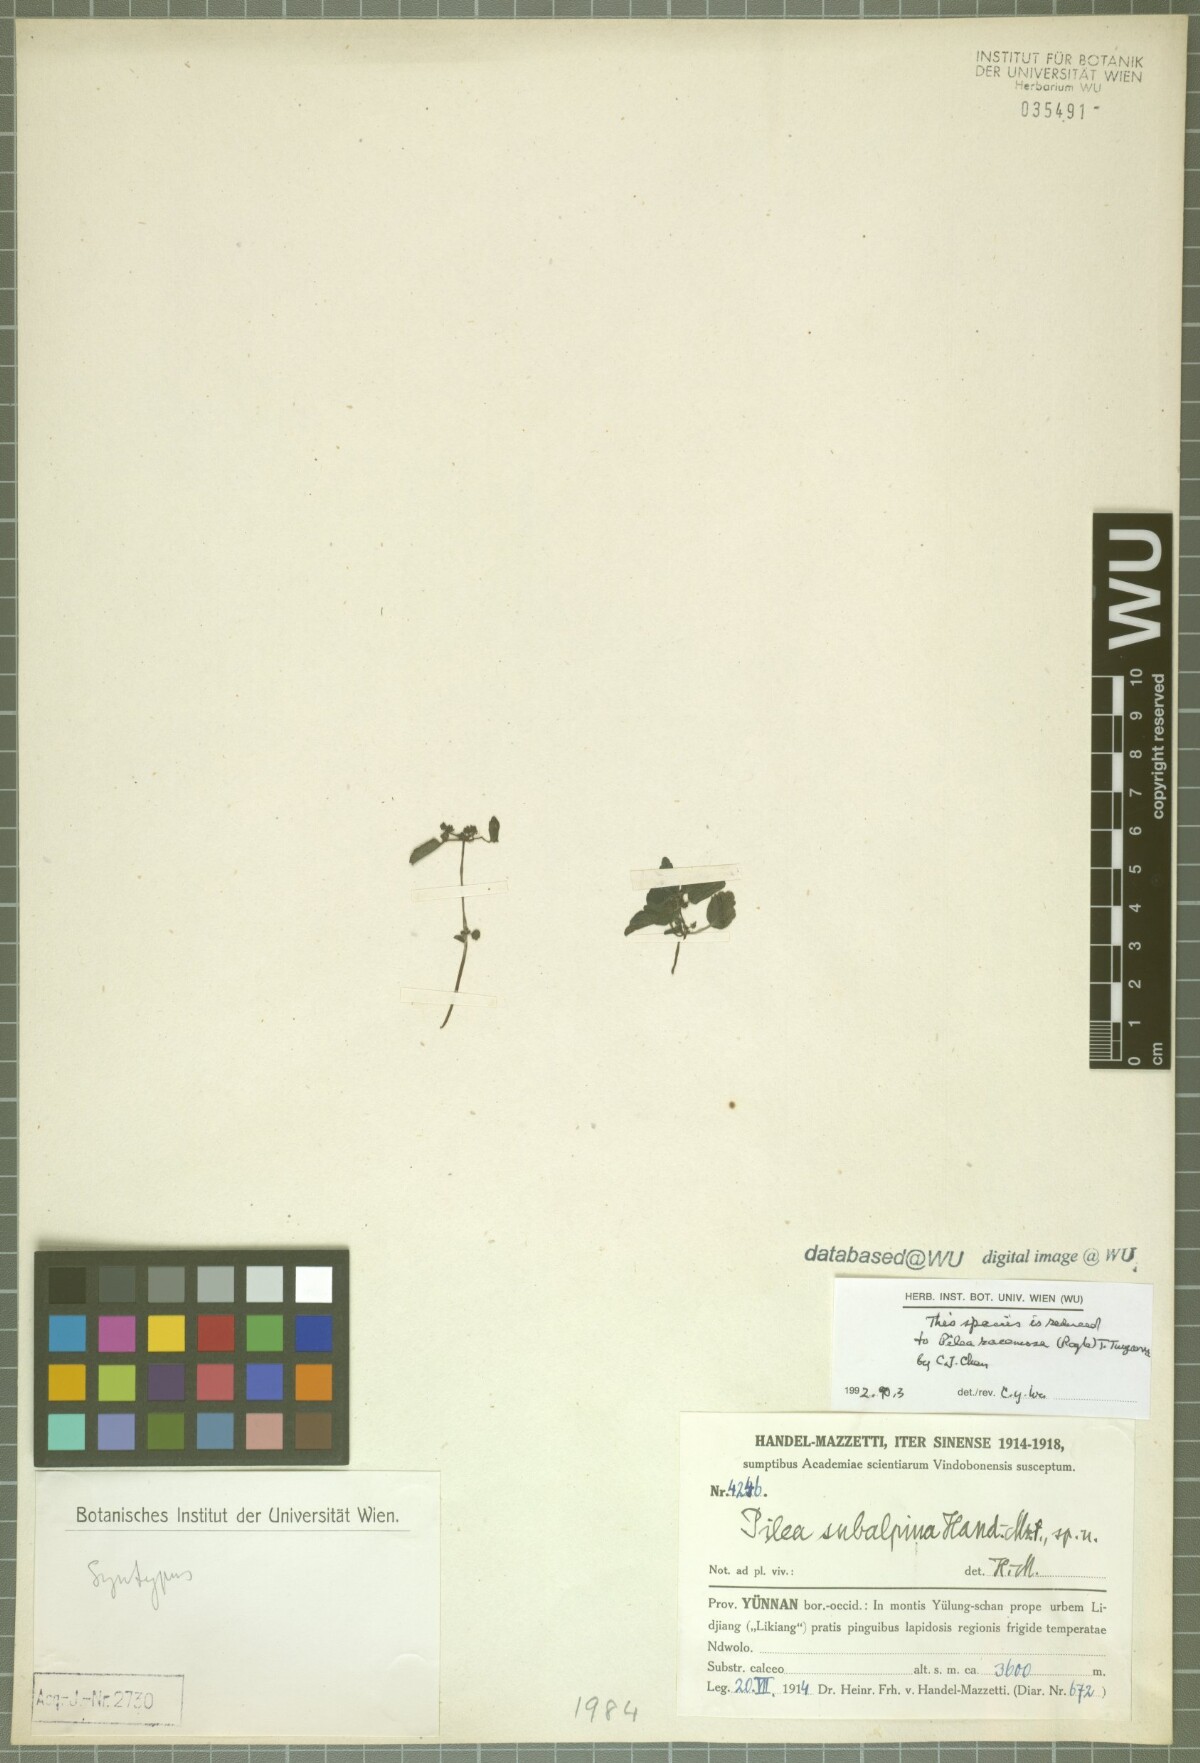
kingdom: Plantae
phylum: Tracheophyta
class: Magnoliopsida
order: Rosales
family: Urticaceae
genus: Pilea
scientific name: Pilea racemosa
